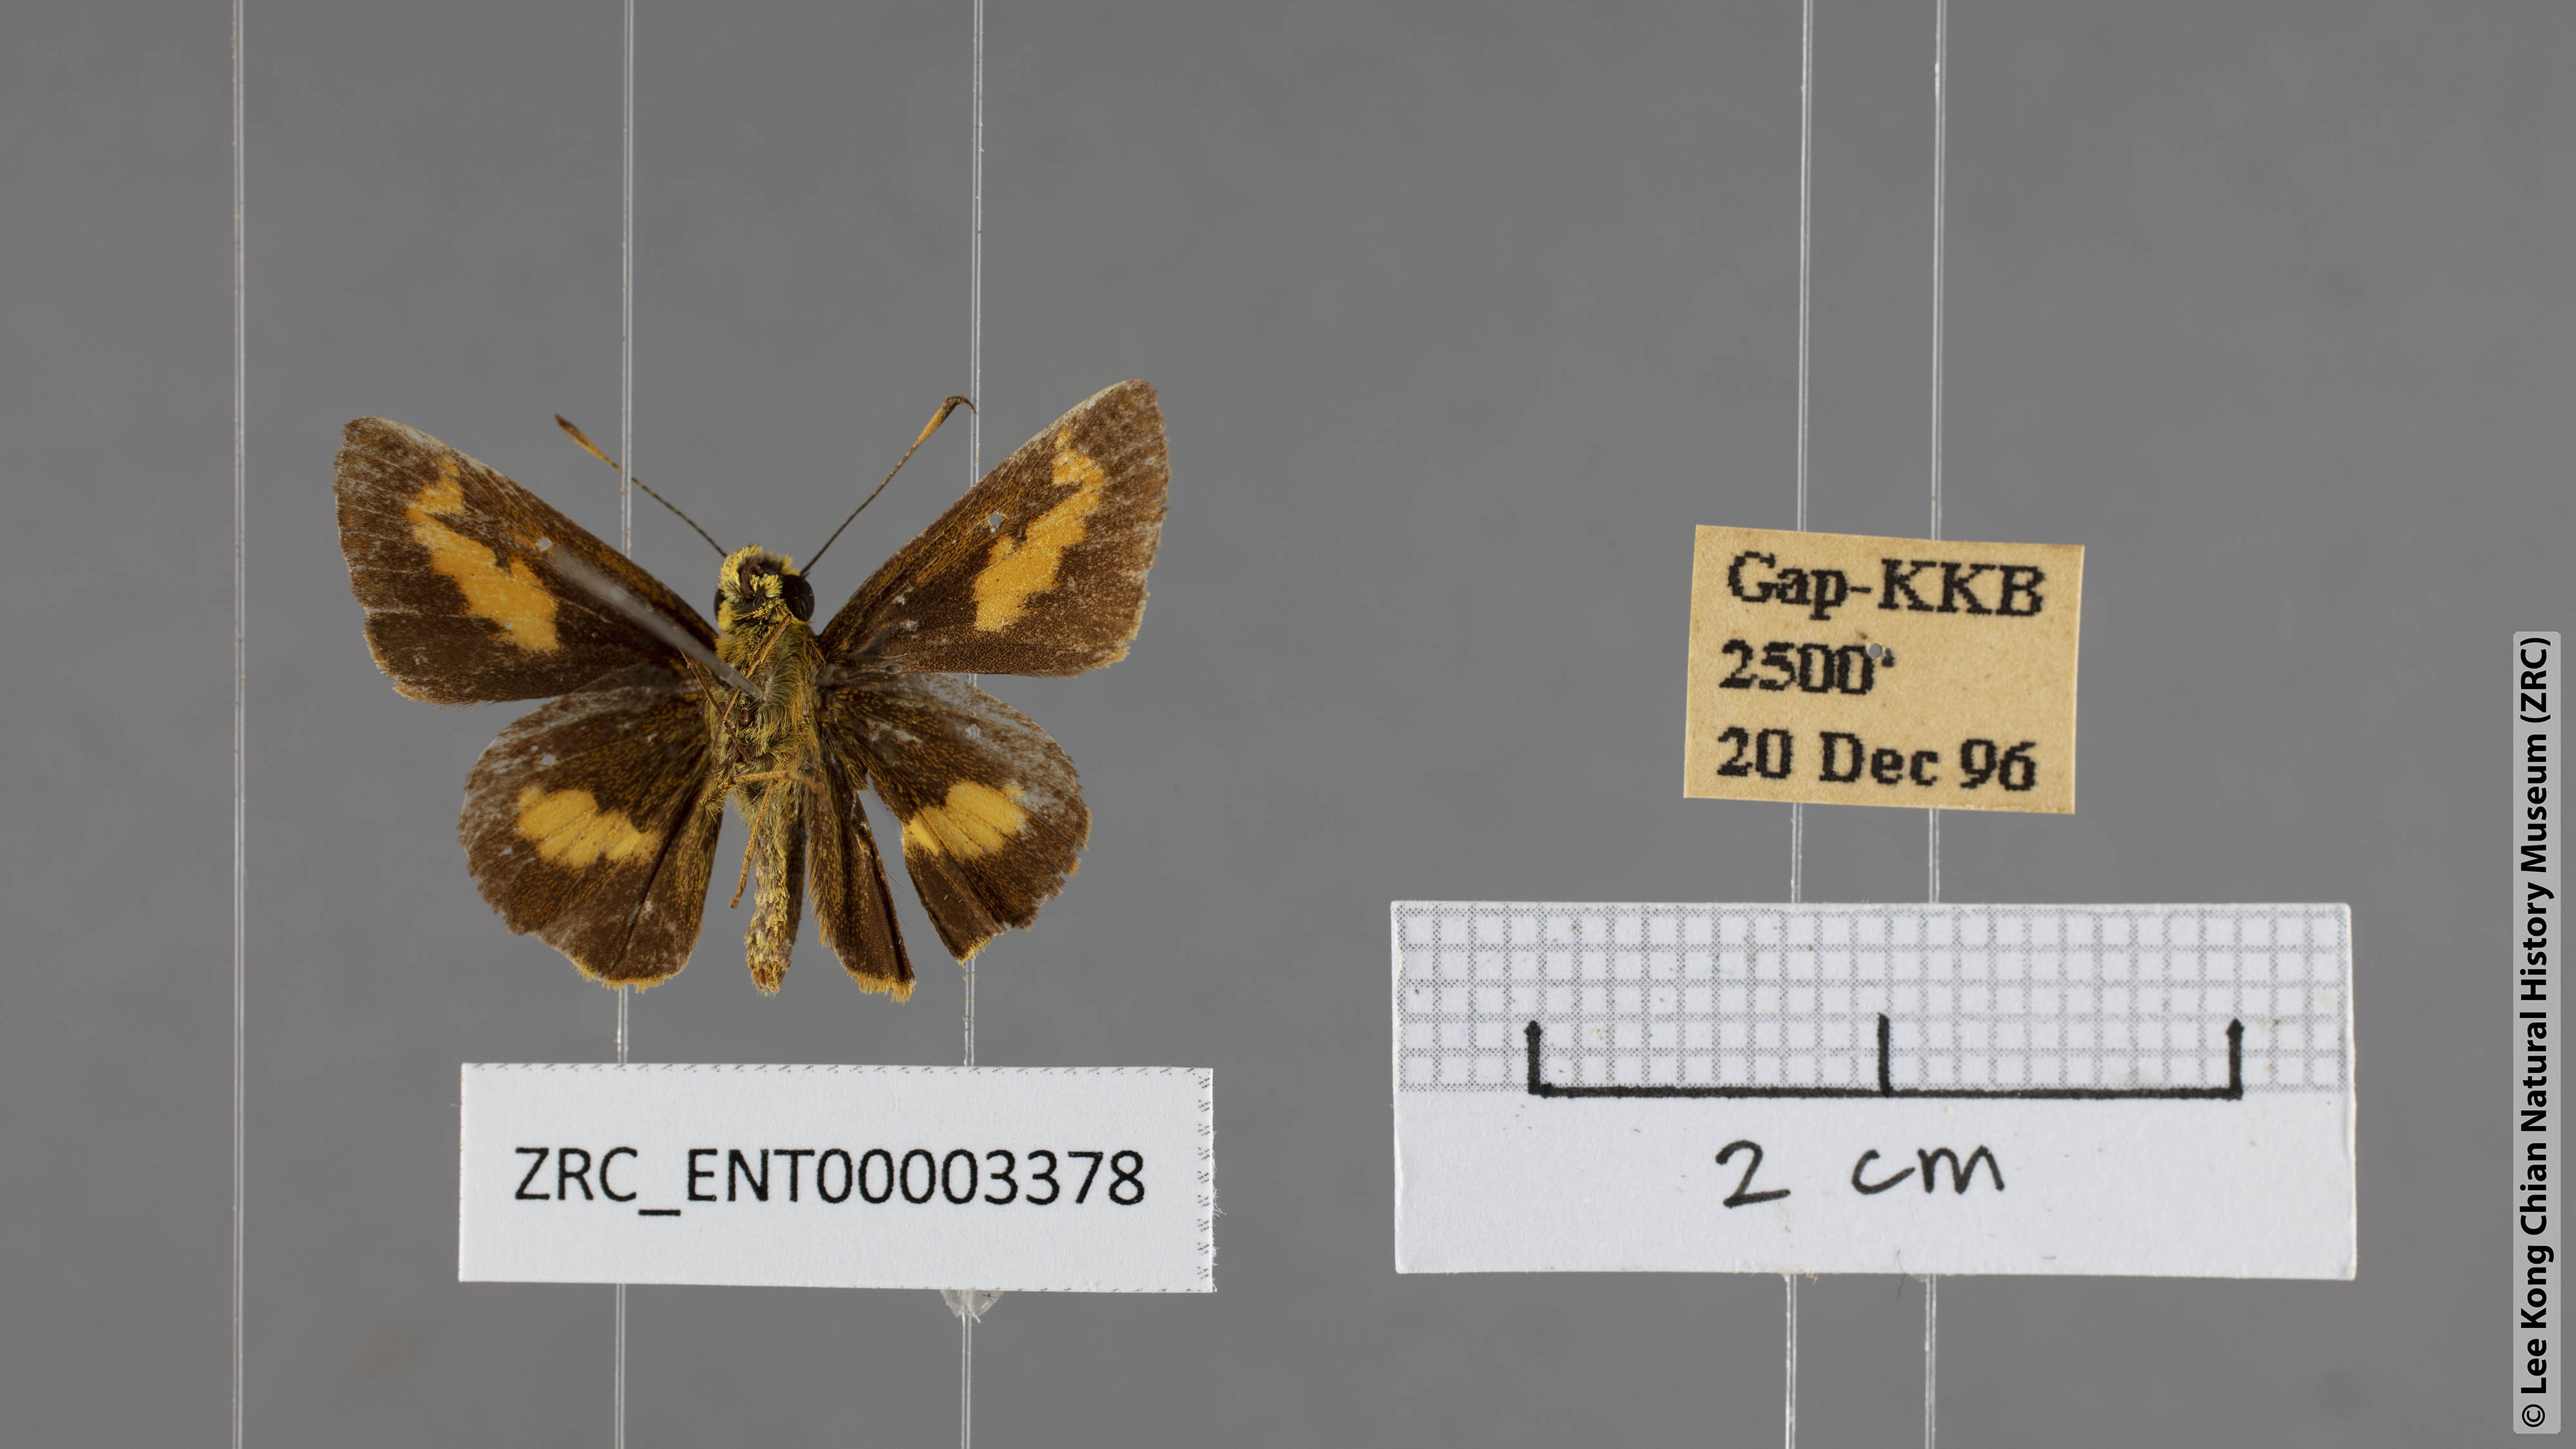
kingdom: Animalia
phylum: Arthropoda
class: Insecta
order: Lepidoptera
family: Hesperiidae
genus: Oriens
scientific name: Oriens paragola
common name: Malay dartlet
